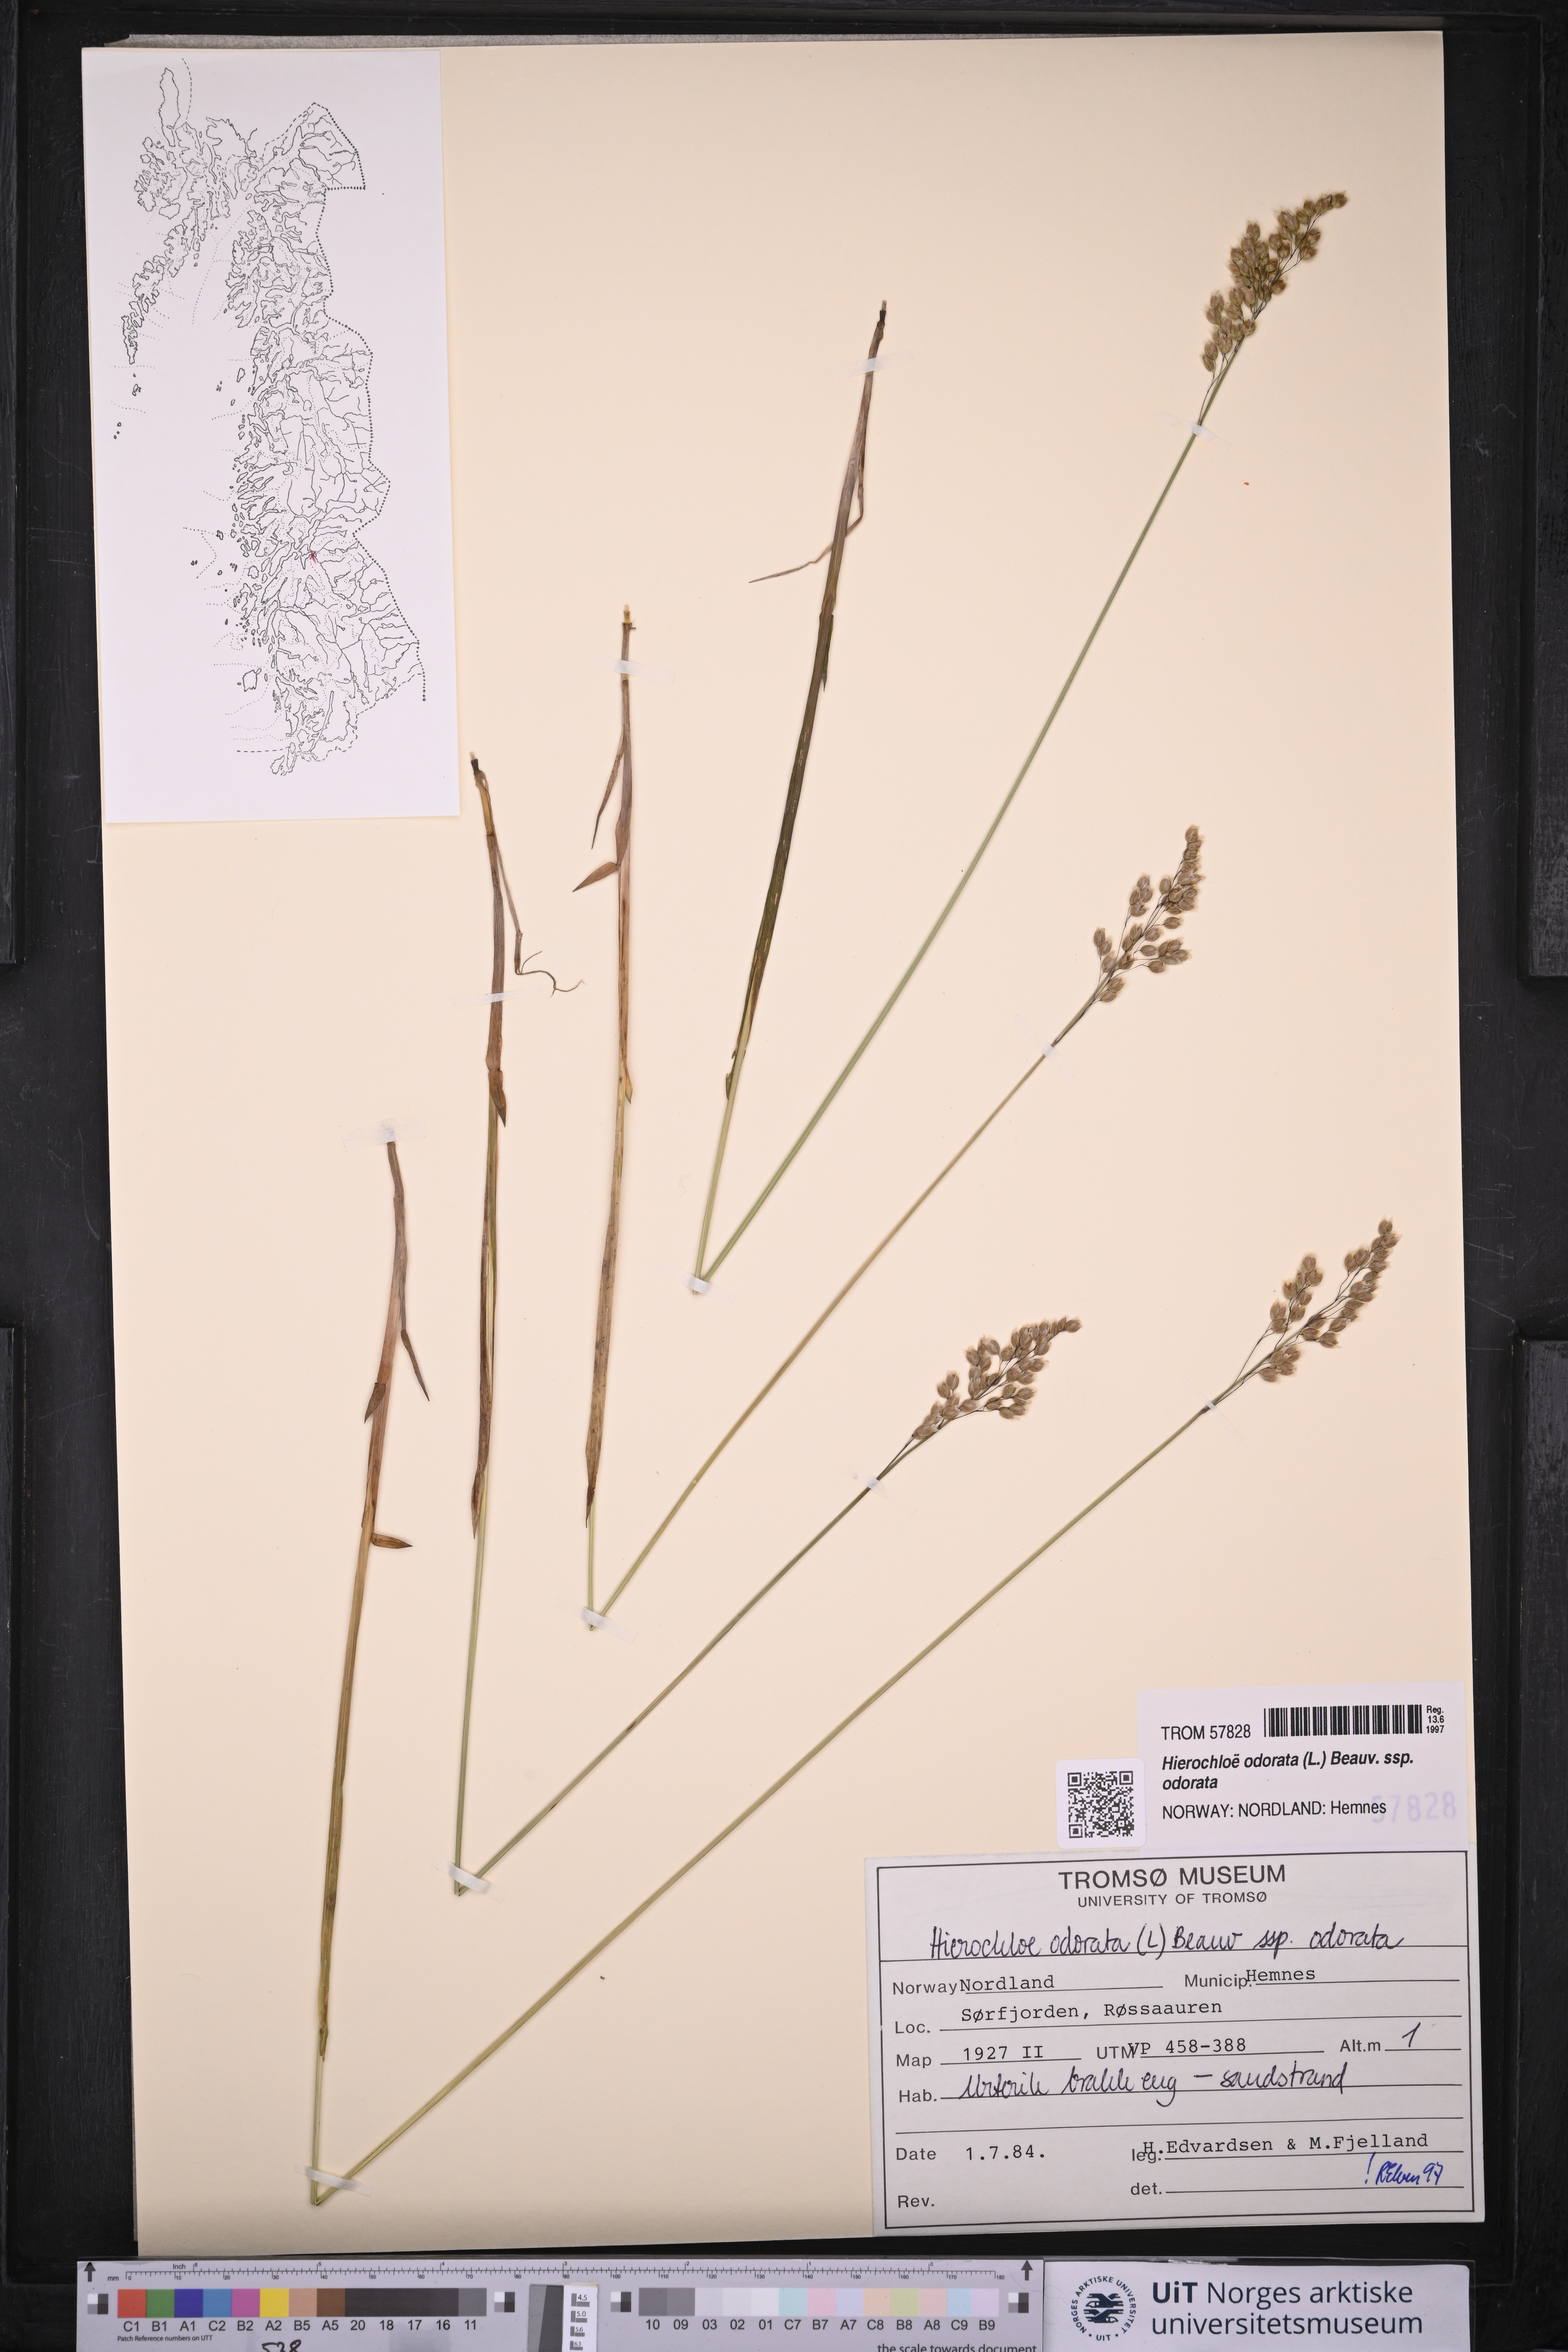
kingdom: Plantae
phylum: Tracheophyta
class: Liliopsida
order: Poales
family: Poaceae
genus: Anthoxanthum
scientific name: Anthoxanthum nitens
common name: Holy grass
